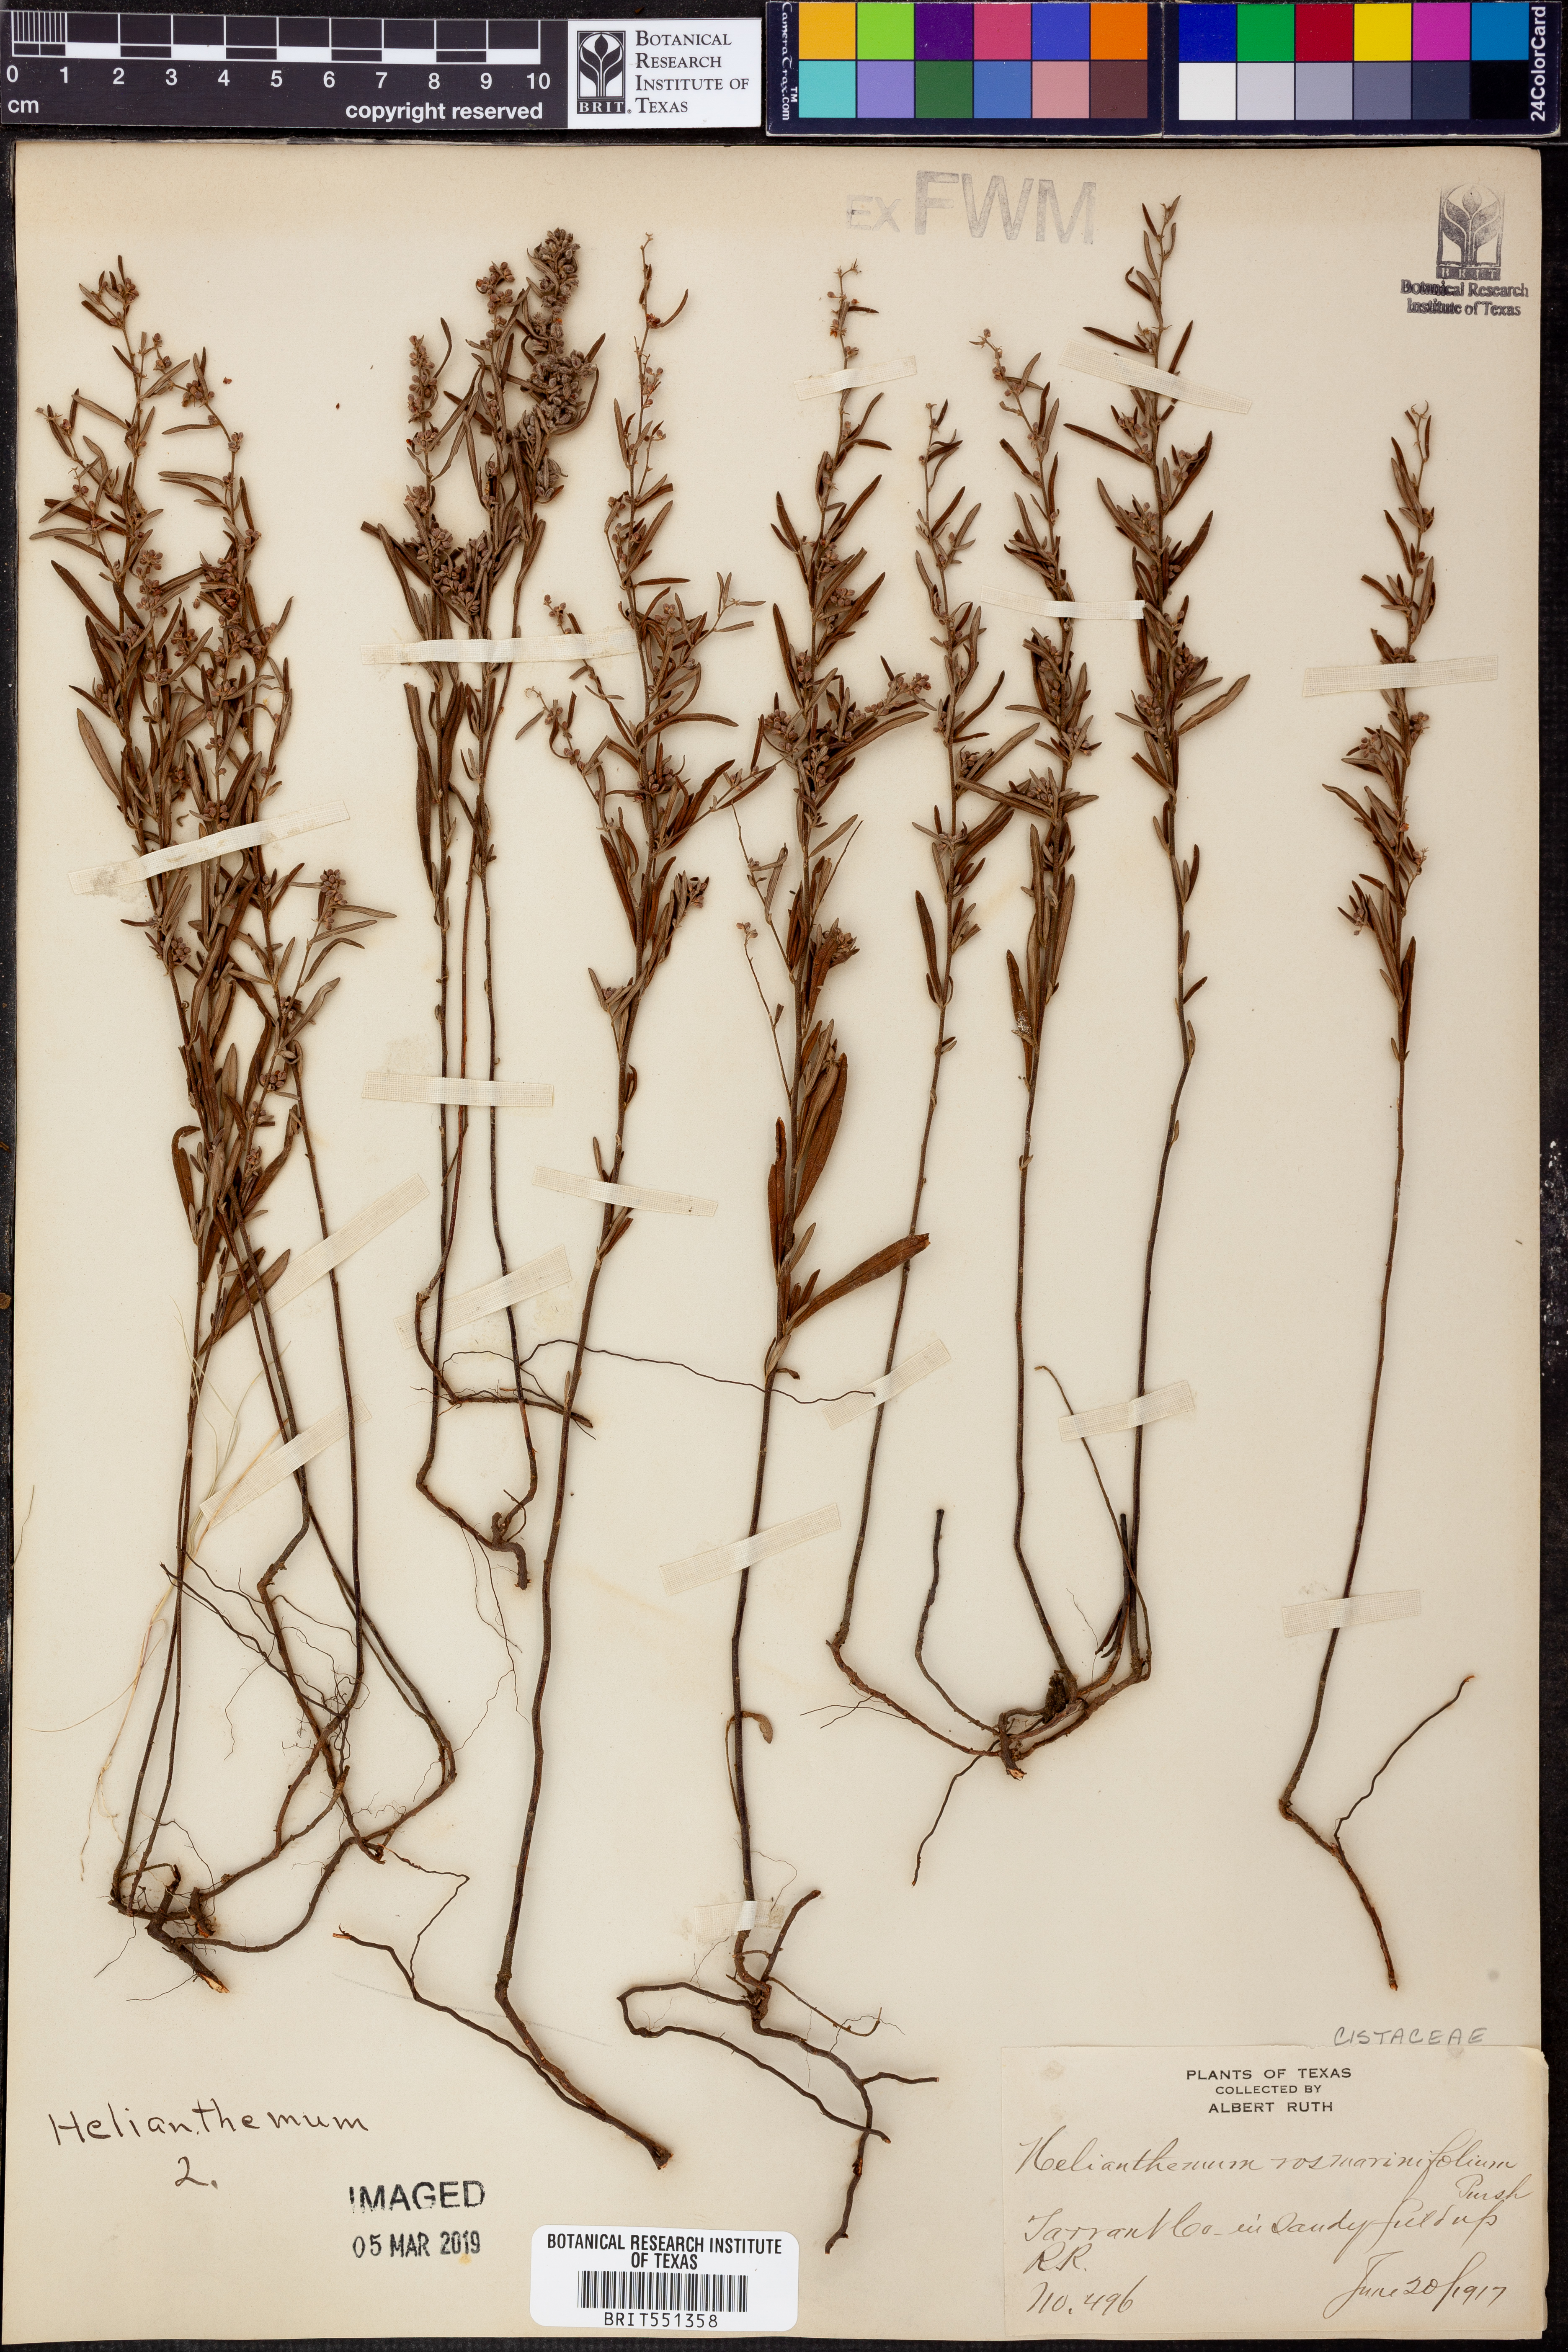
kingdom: Plantae
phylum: Tracheophyta
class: Magnoliopsida
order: Malvales
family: Cistaceae
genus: Crocanthemum
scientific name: Crocanthemum rosmarinifolium
